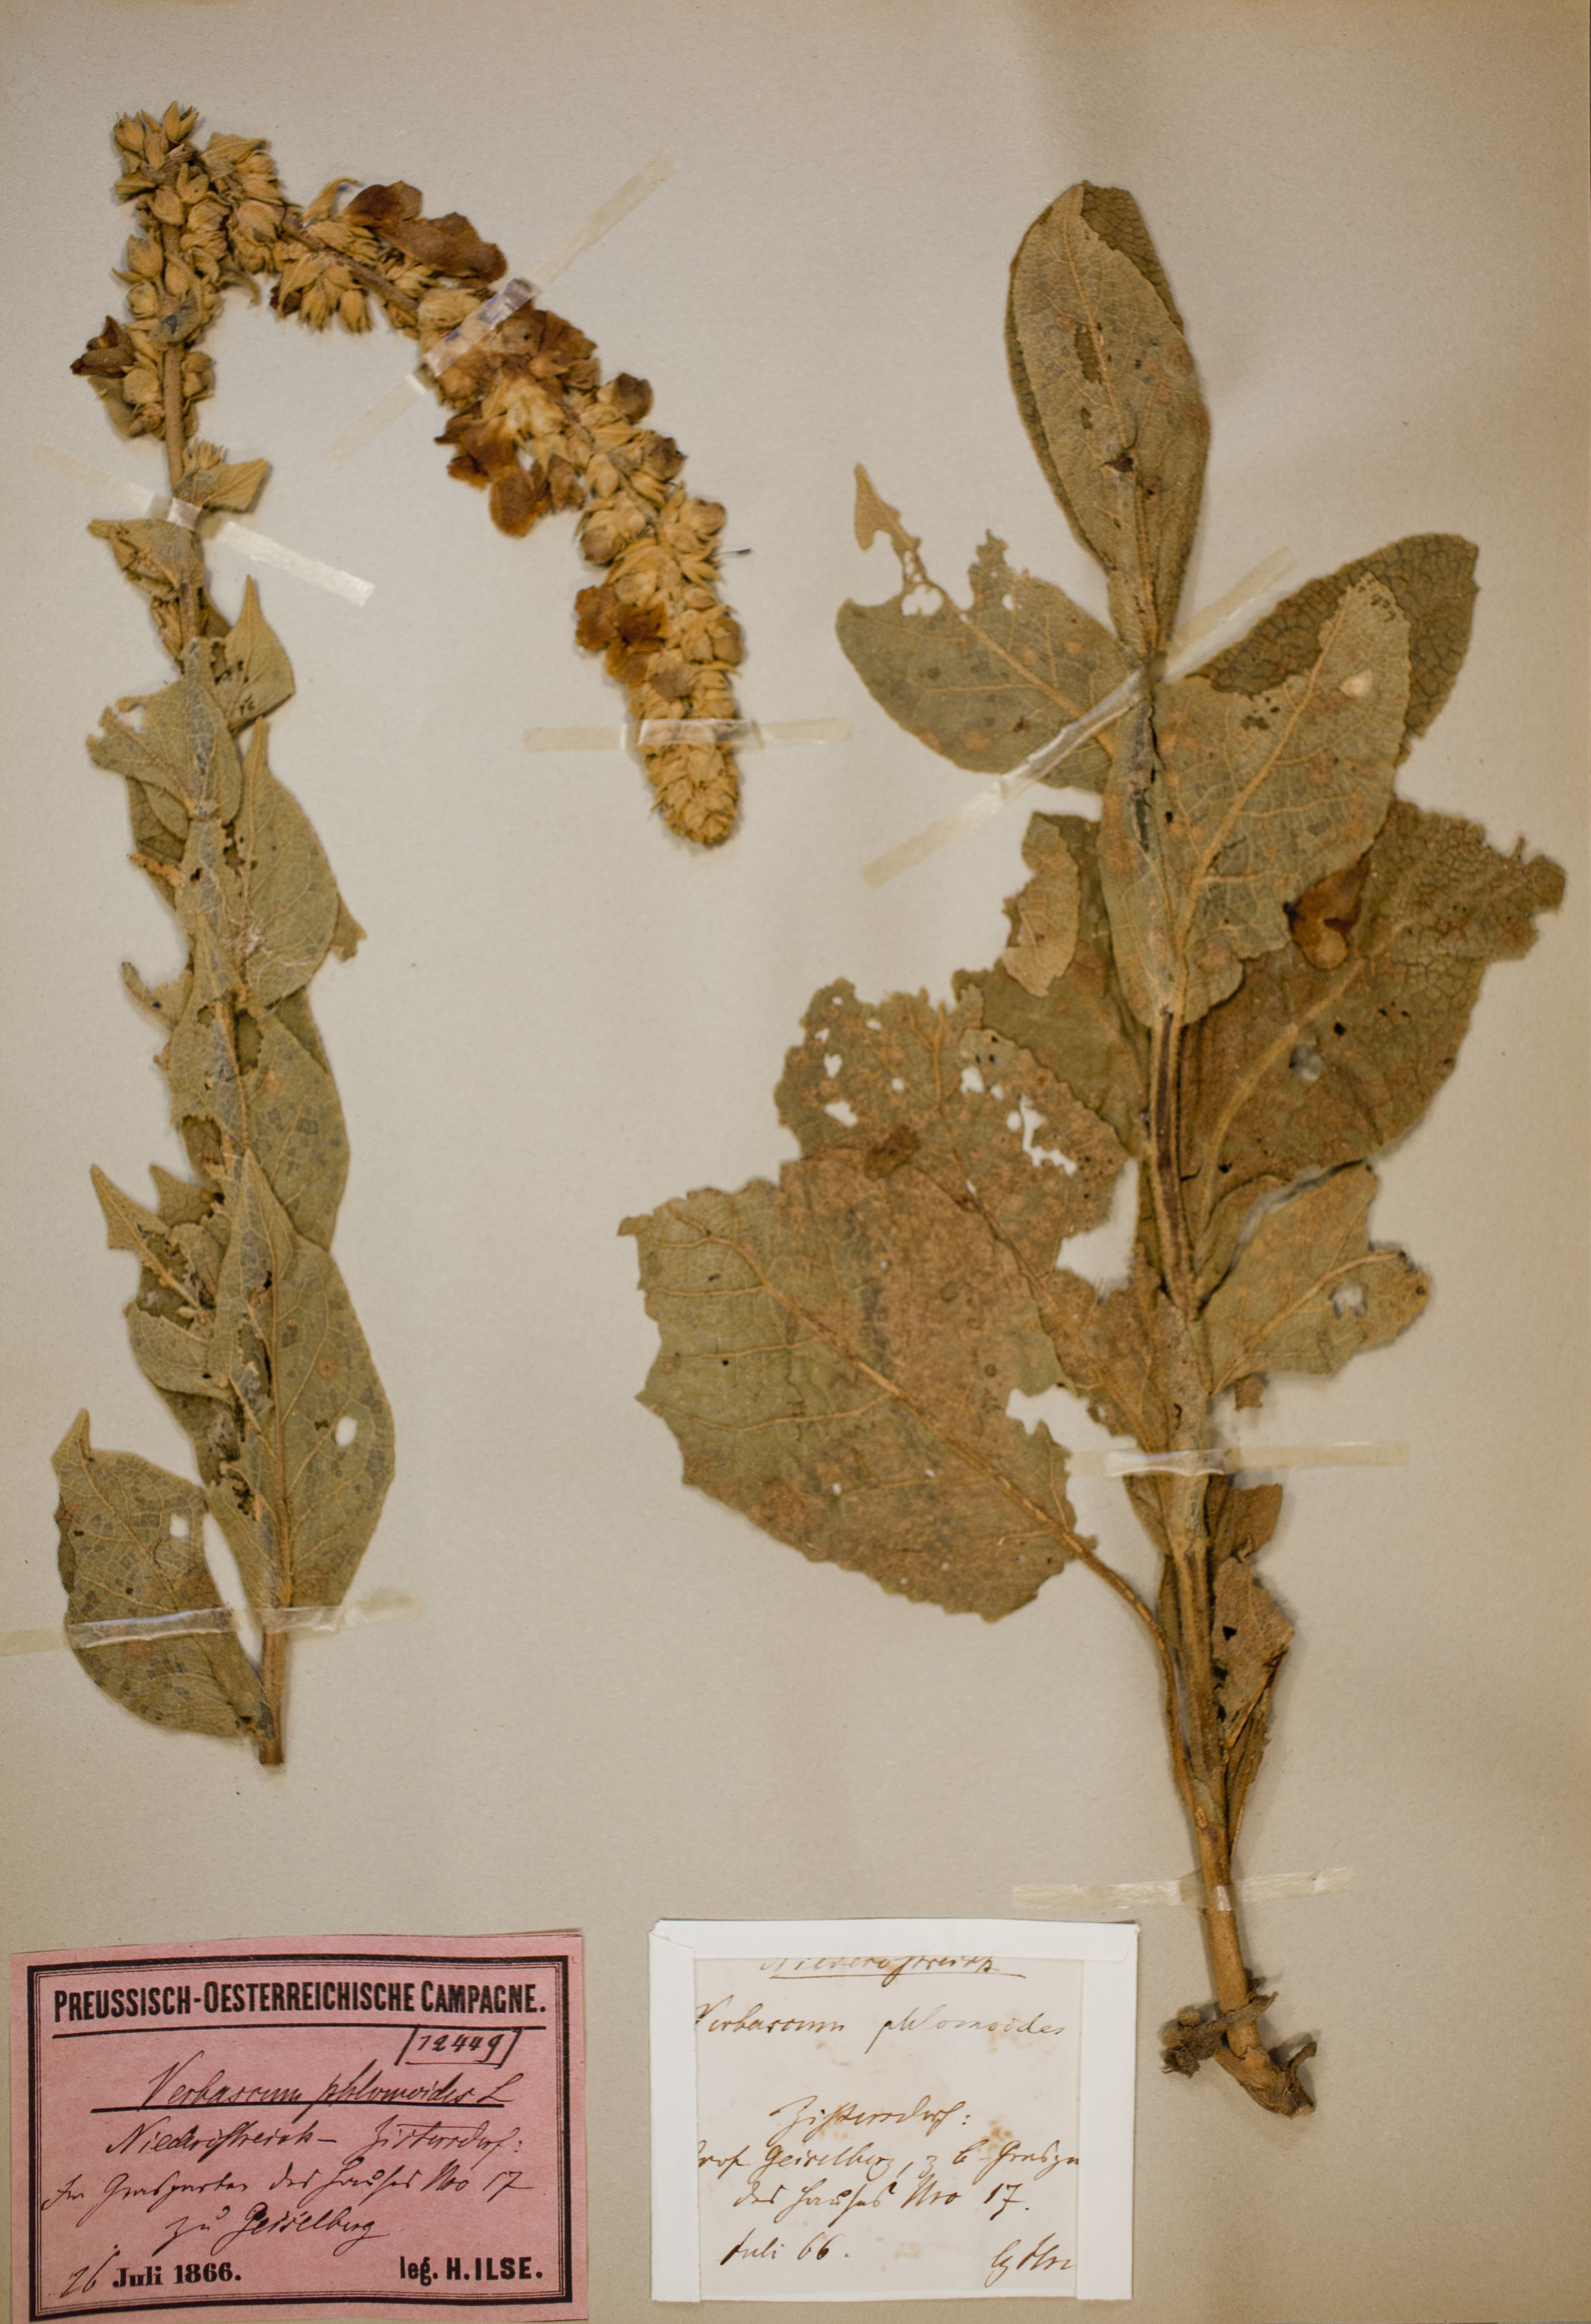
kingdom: Plantae
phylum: Tracheophyta
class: Magnoliopsida
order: Lamiales
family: Scrophulariaceae
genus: Verbascum
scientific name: Verbascum phlomoides
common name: Orange mullein
